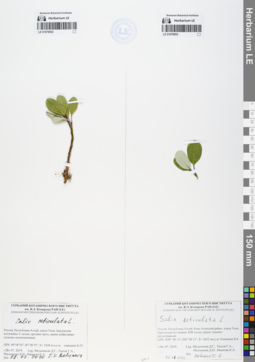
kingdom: Plantae
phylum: Tracheophyta
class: Magnoliopsida
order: Malpighiales
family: Salicaceae
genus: Salix
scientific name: Salix reticulata
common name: Net-leaved willow
